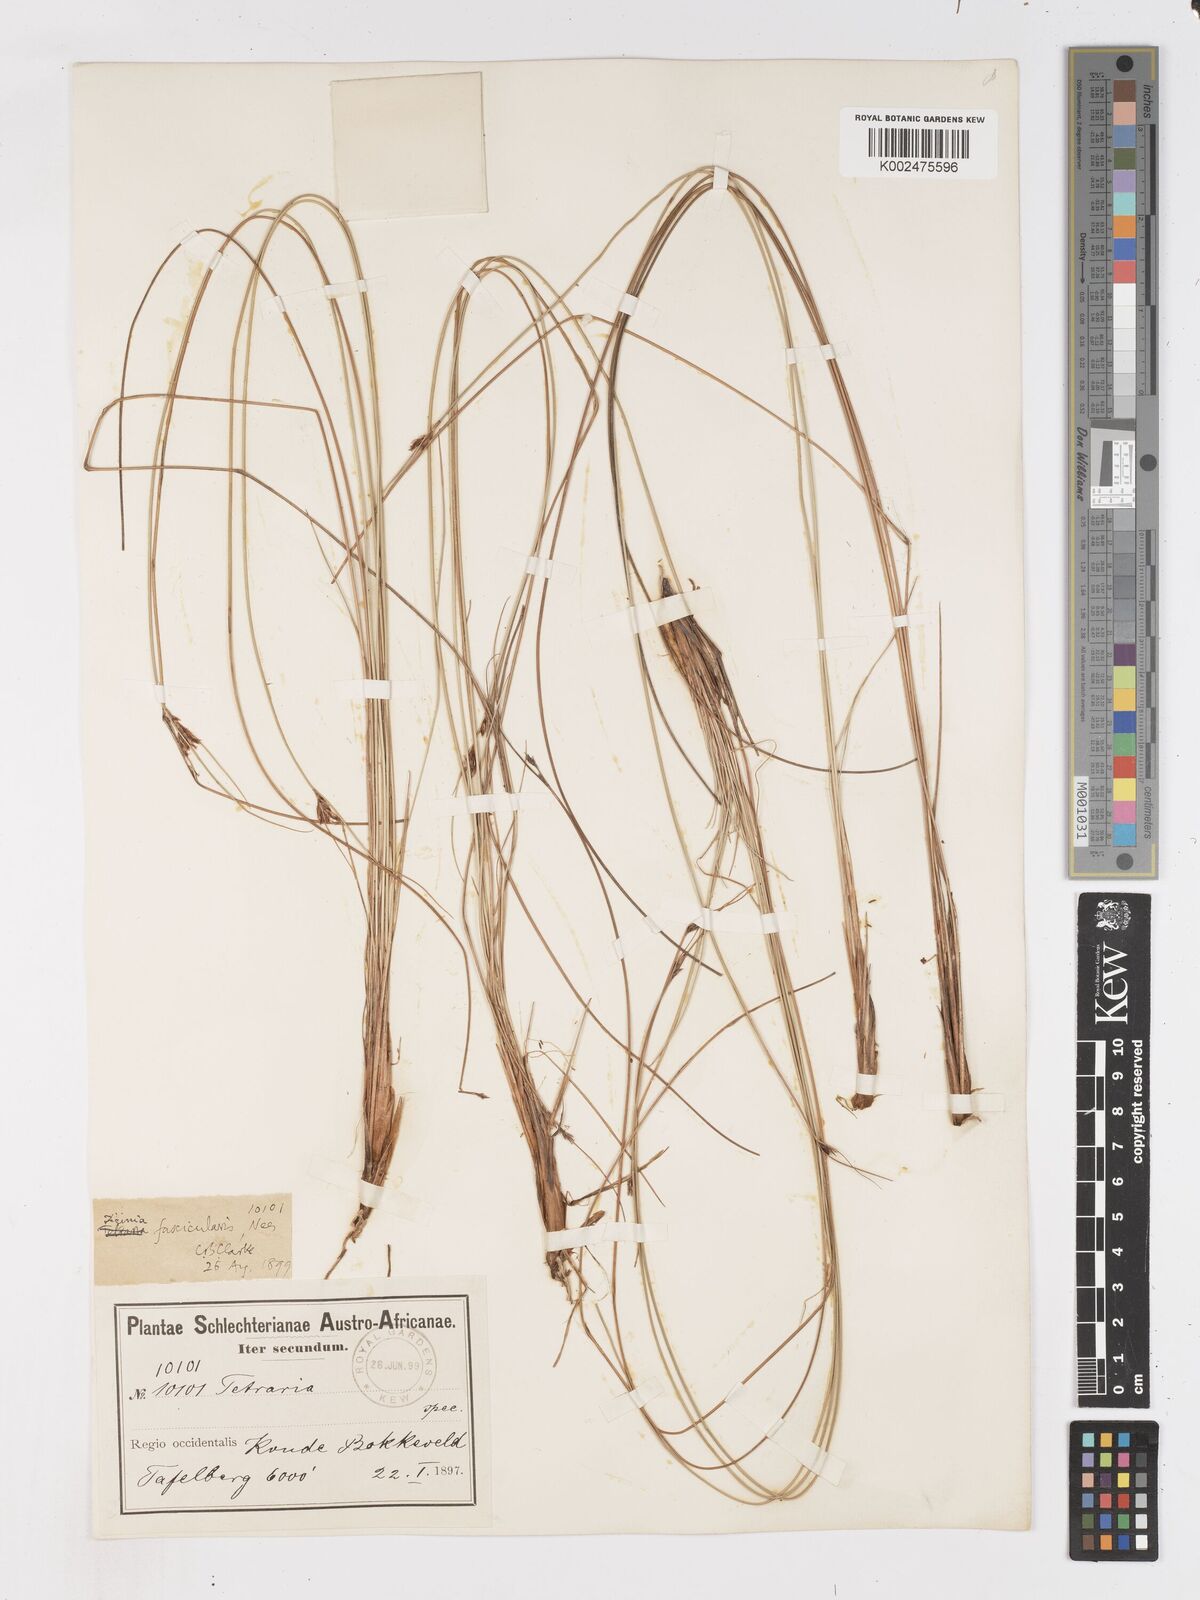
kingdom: Plantae
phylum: Tracheophyta
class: Liliopsida
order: Poales
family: Cyperaceae
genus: Ficinia
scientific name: Ficinia fascicularis
